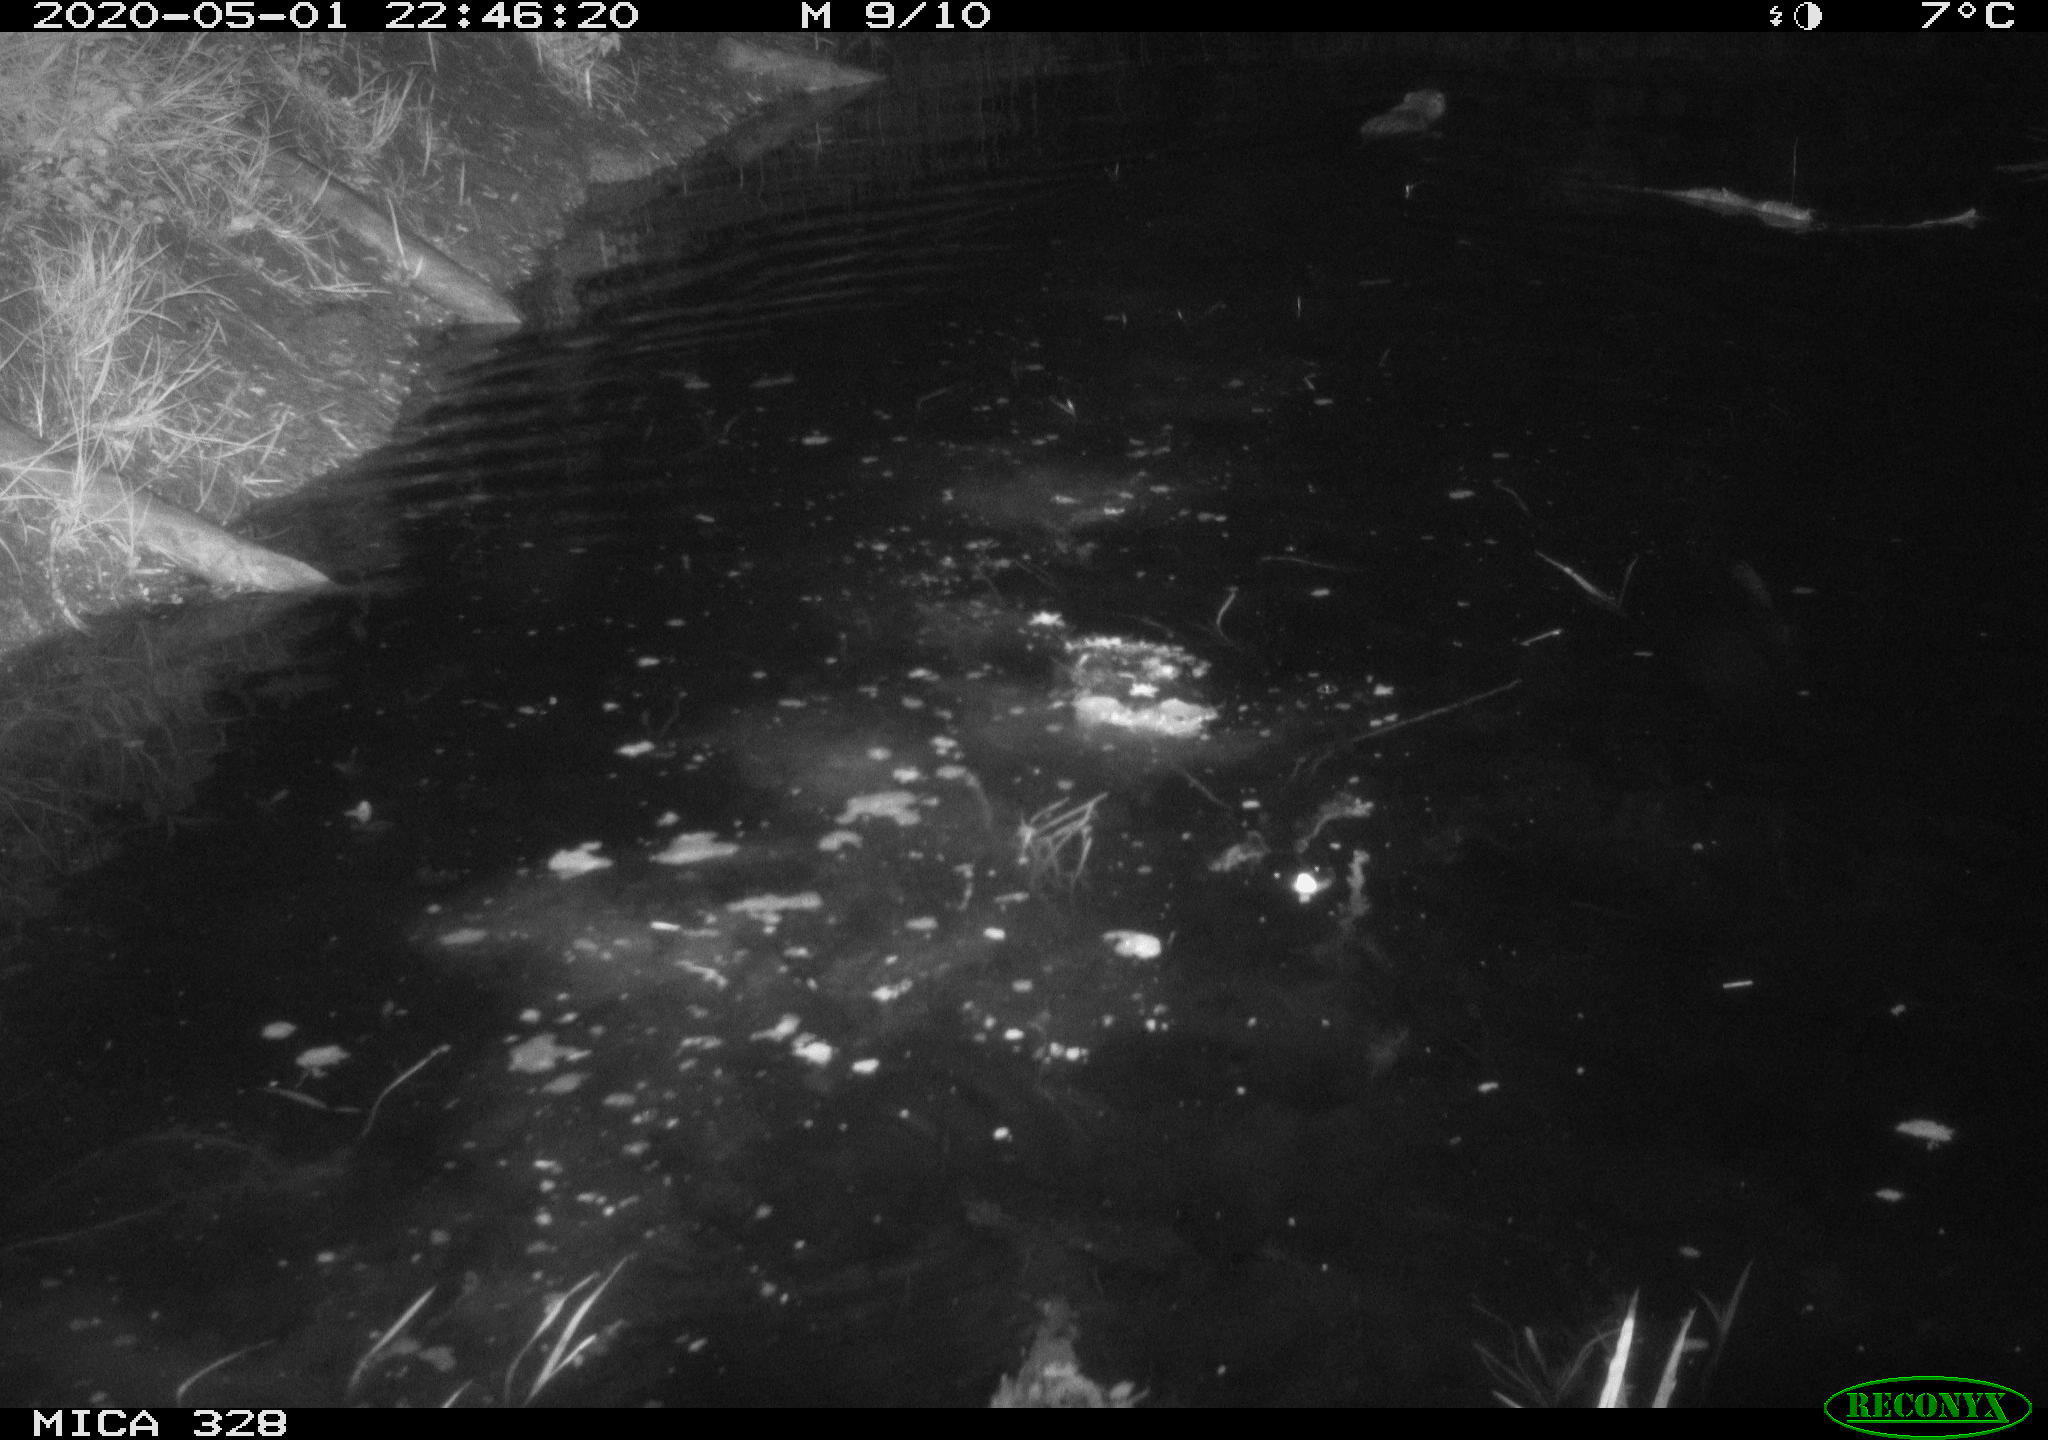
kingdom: Animalia
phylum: Chordata
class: Mammalia
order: Rodentia
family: Myocastoridae
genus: Myocastor
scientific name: Myocastor coypus
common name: Coypu
